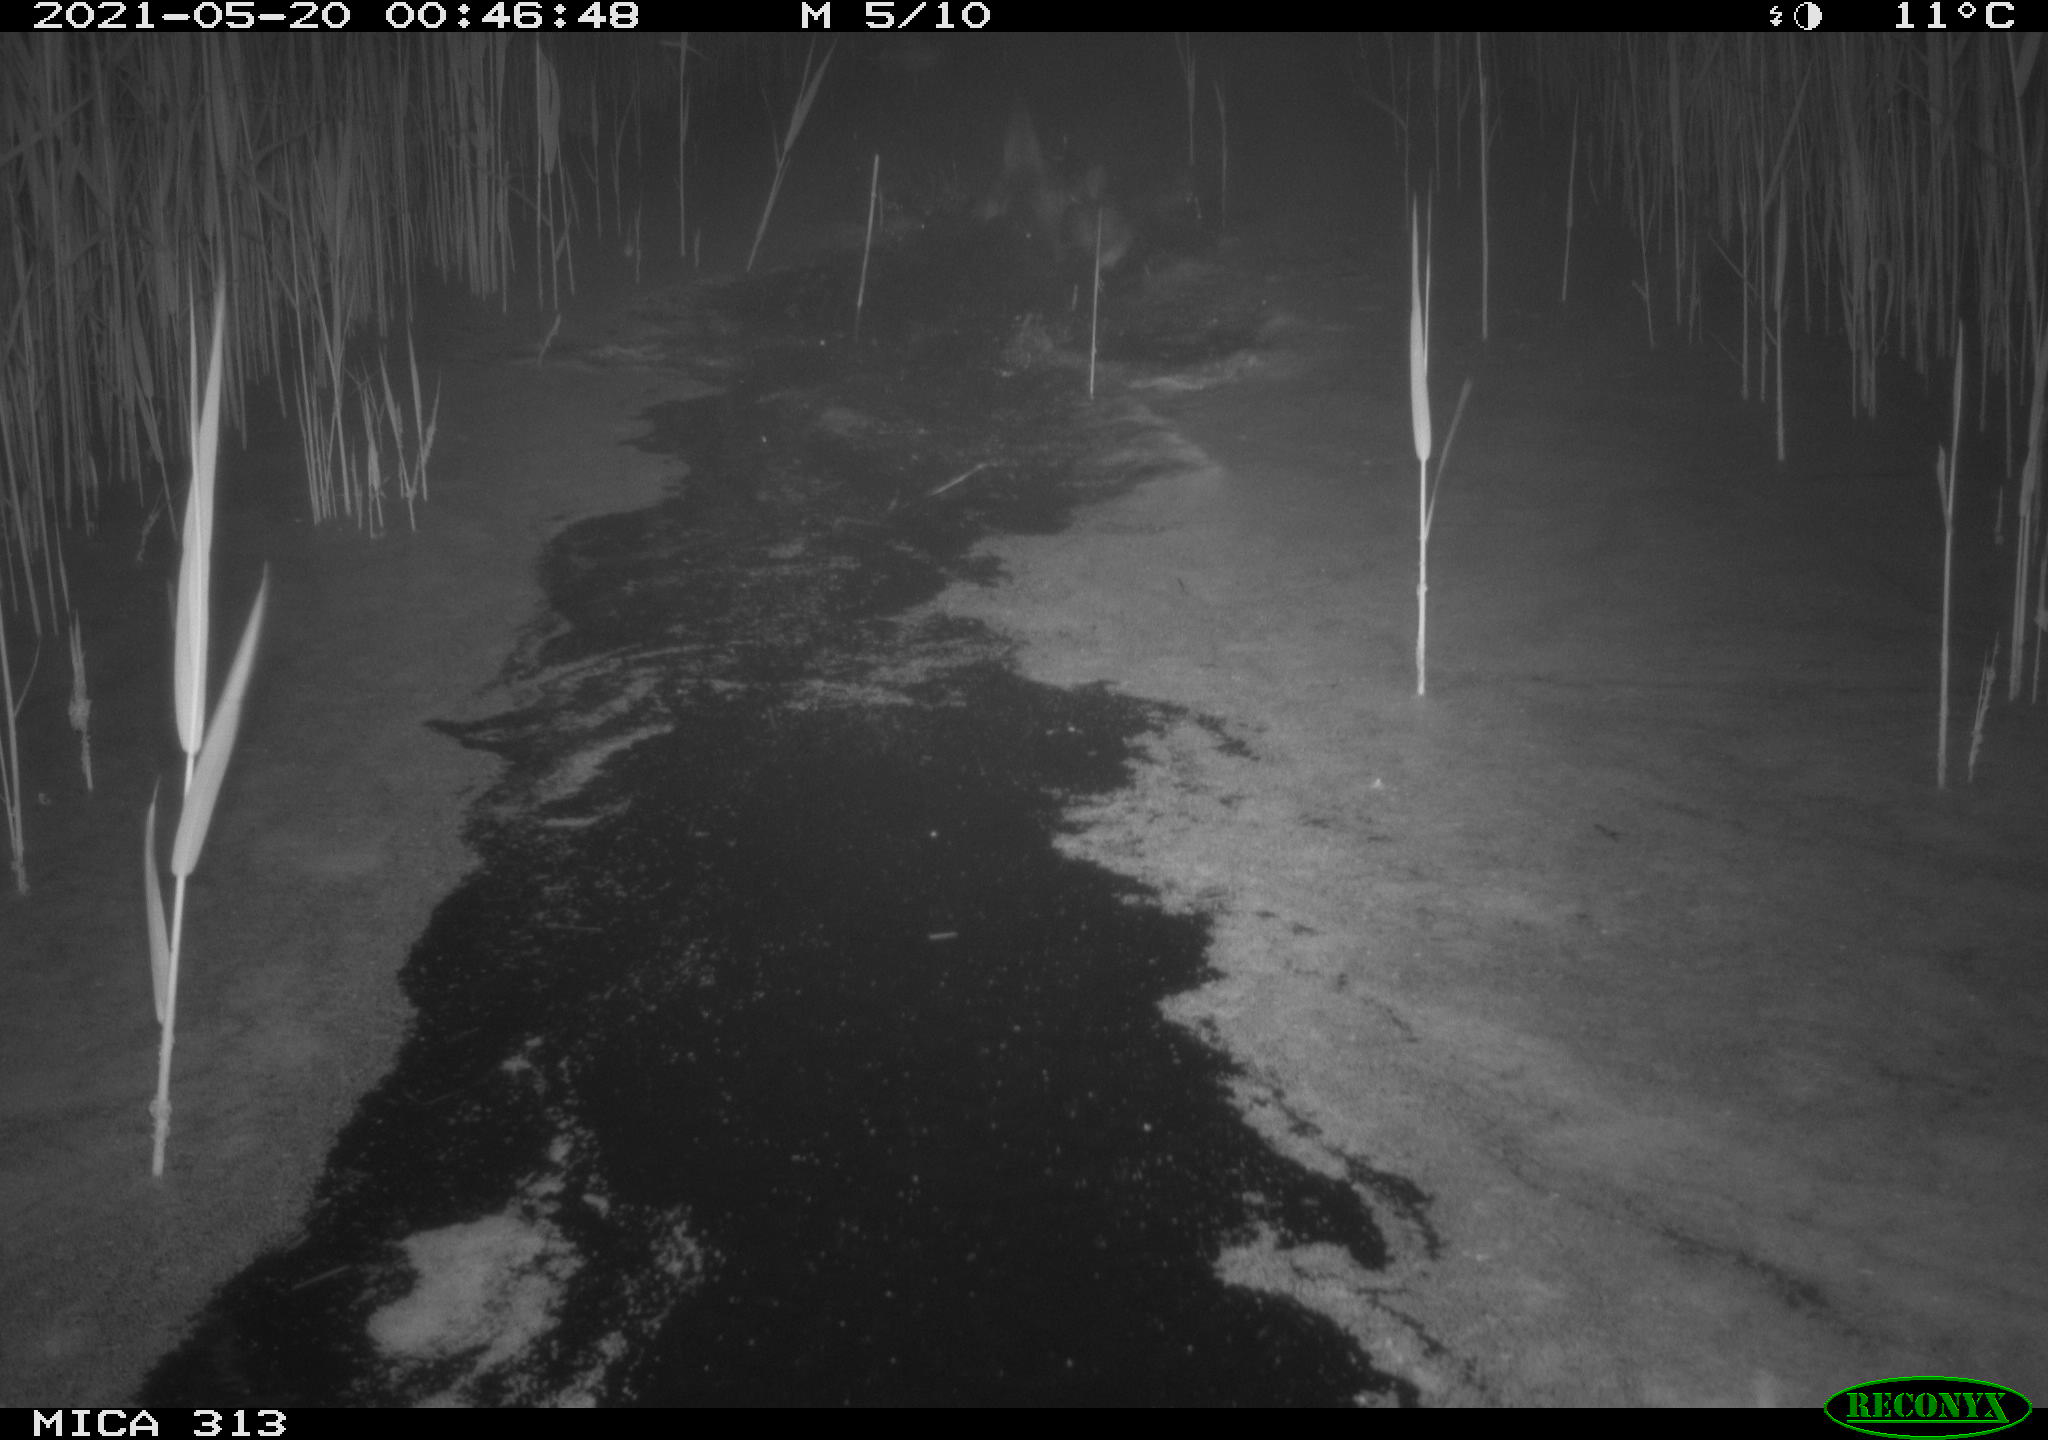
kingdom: Animalia
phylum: Chordata
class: Aves
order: Anseriformes
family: Anatidae
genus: Anas
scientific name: Anas platyrhynchos
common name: Mallard
